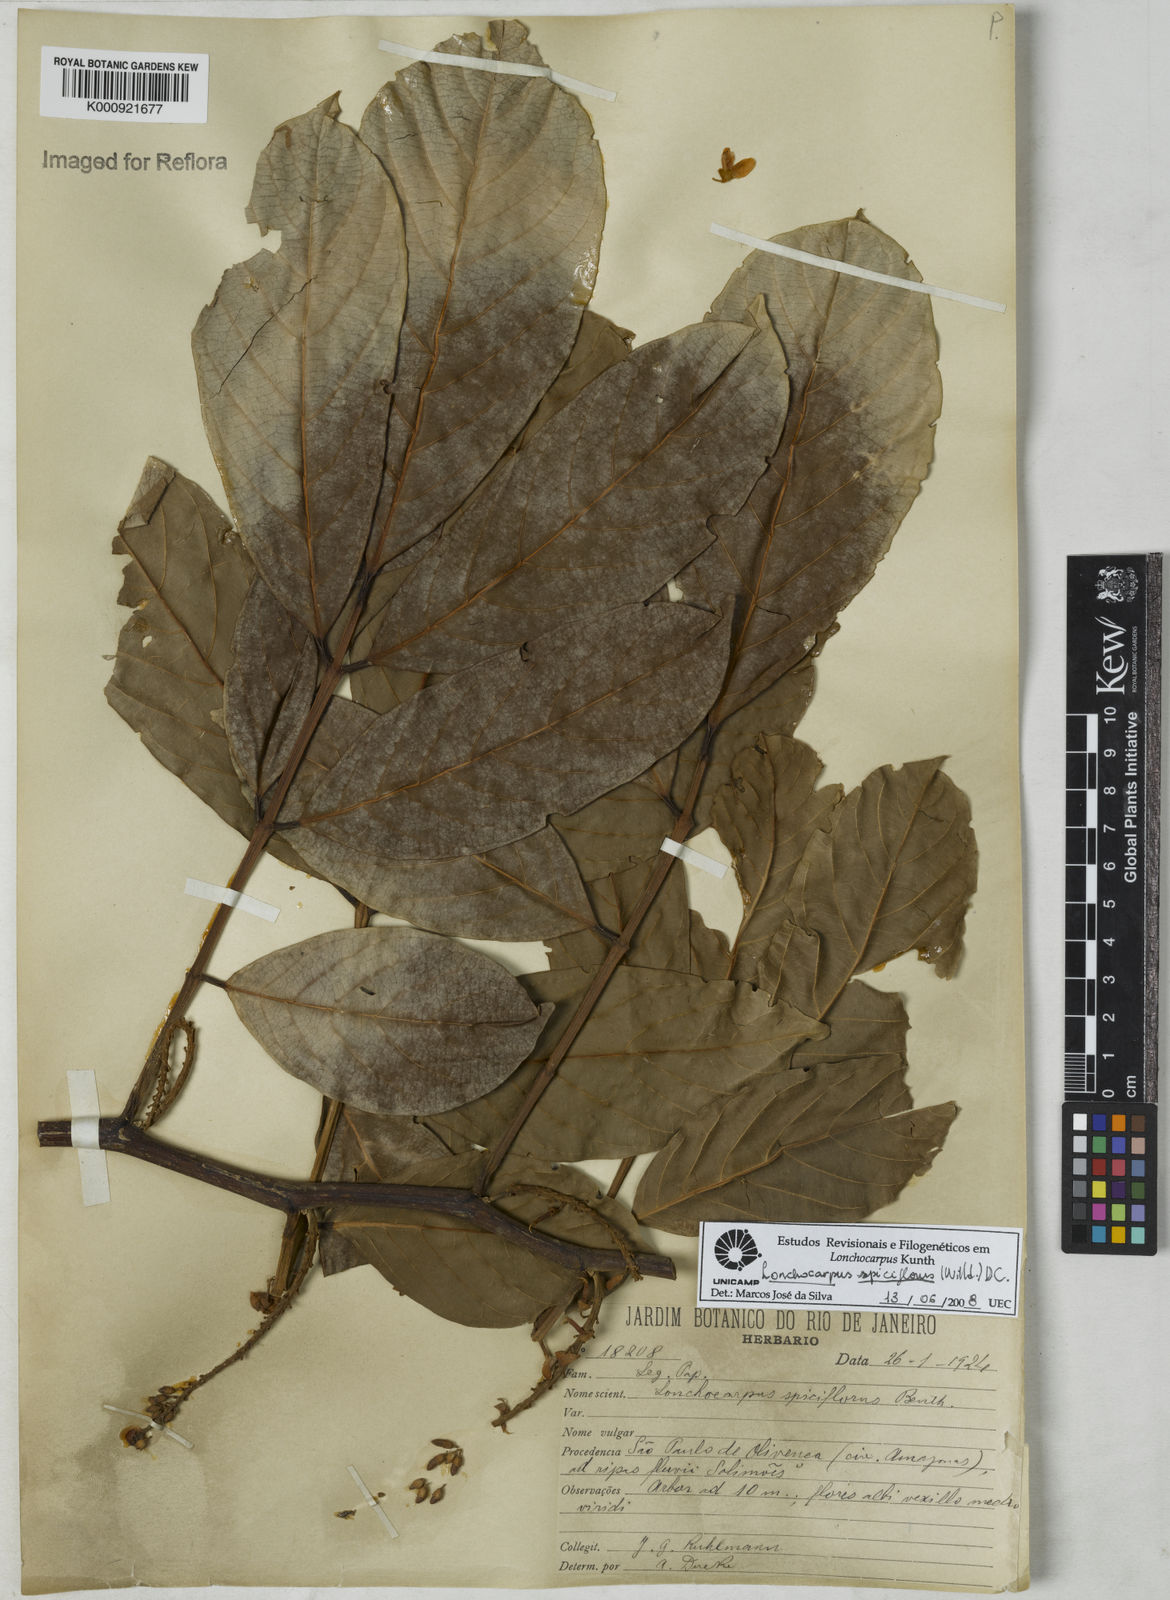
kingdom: Plantae
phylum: Tracheophyta
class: Magnoliopsida
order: Fabales
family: Fabaceae
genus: Lonchocarpus
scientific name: Lonchocarpus spiciflorus
